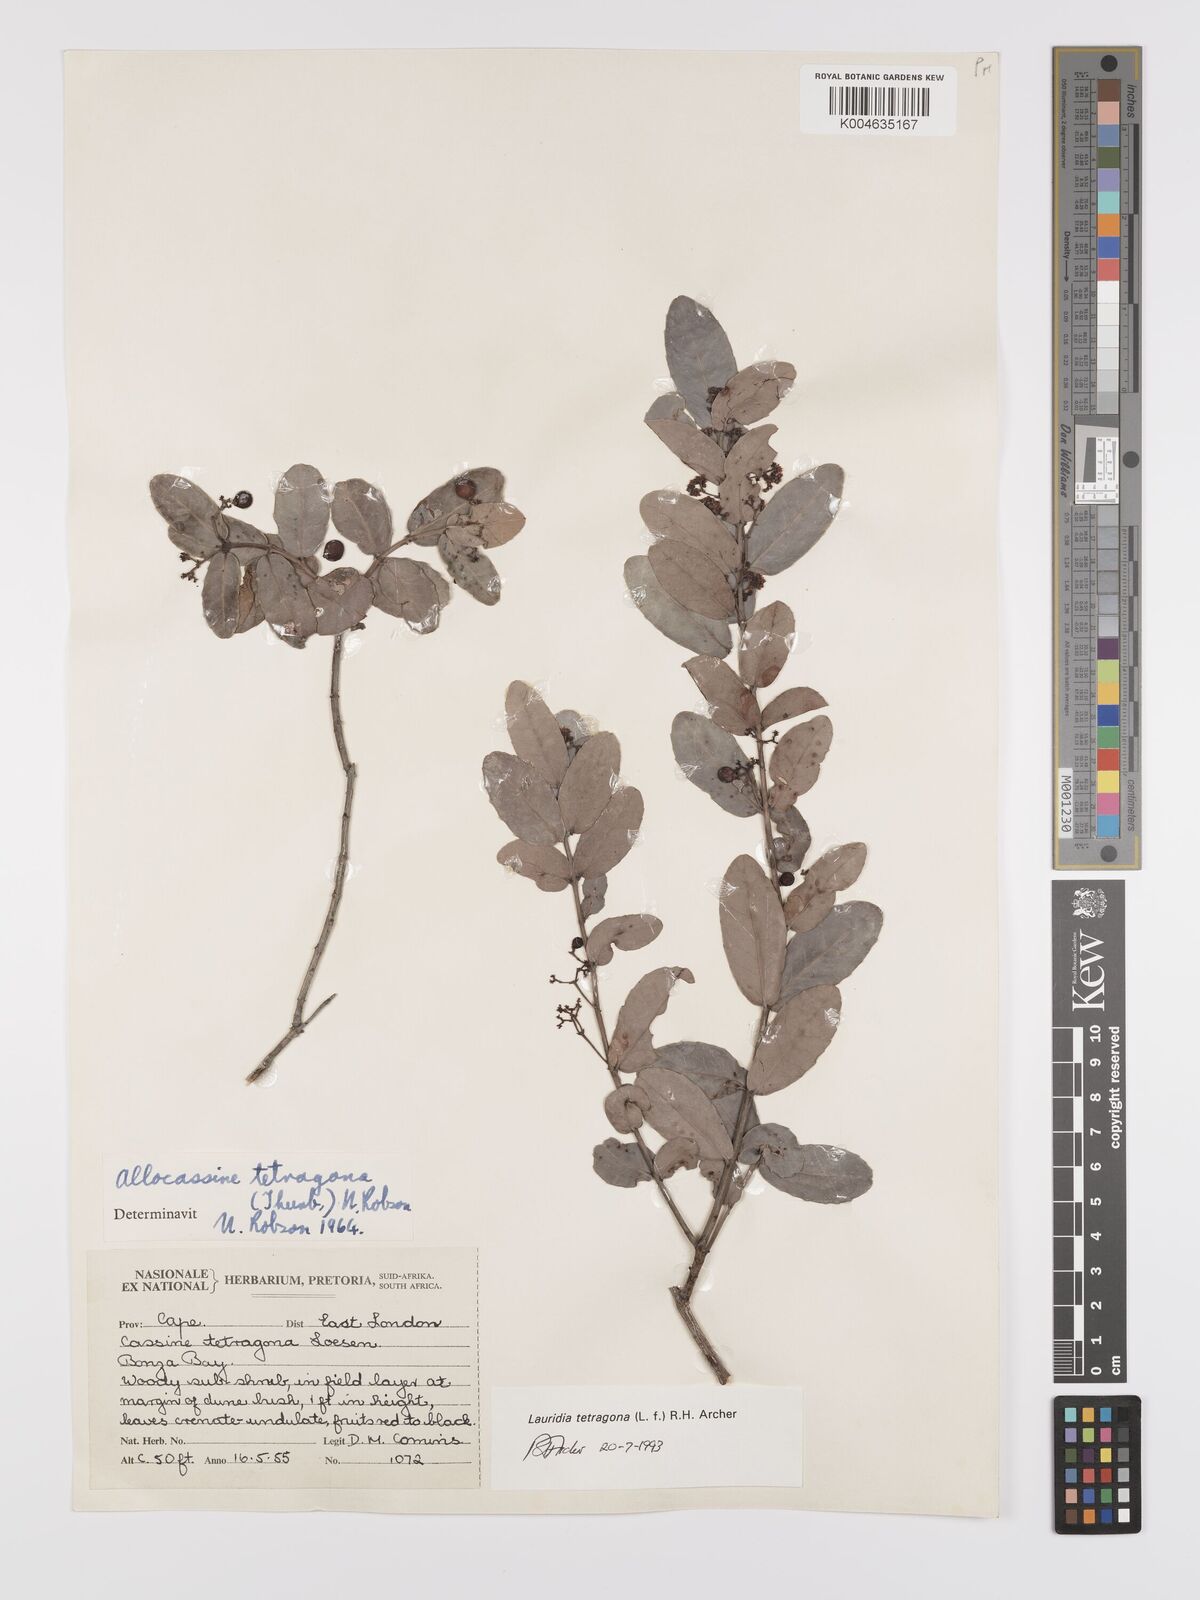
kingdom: Plantae
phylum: Tracheophyta
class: Magnoliopsida
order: Celastrales
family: Celastraceae
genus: Lauridia
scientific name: Lauridia tetragona
